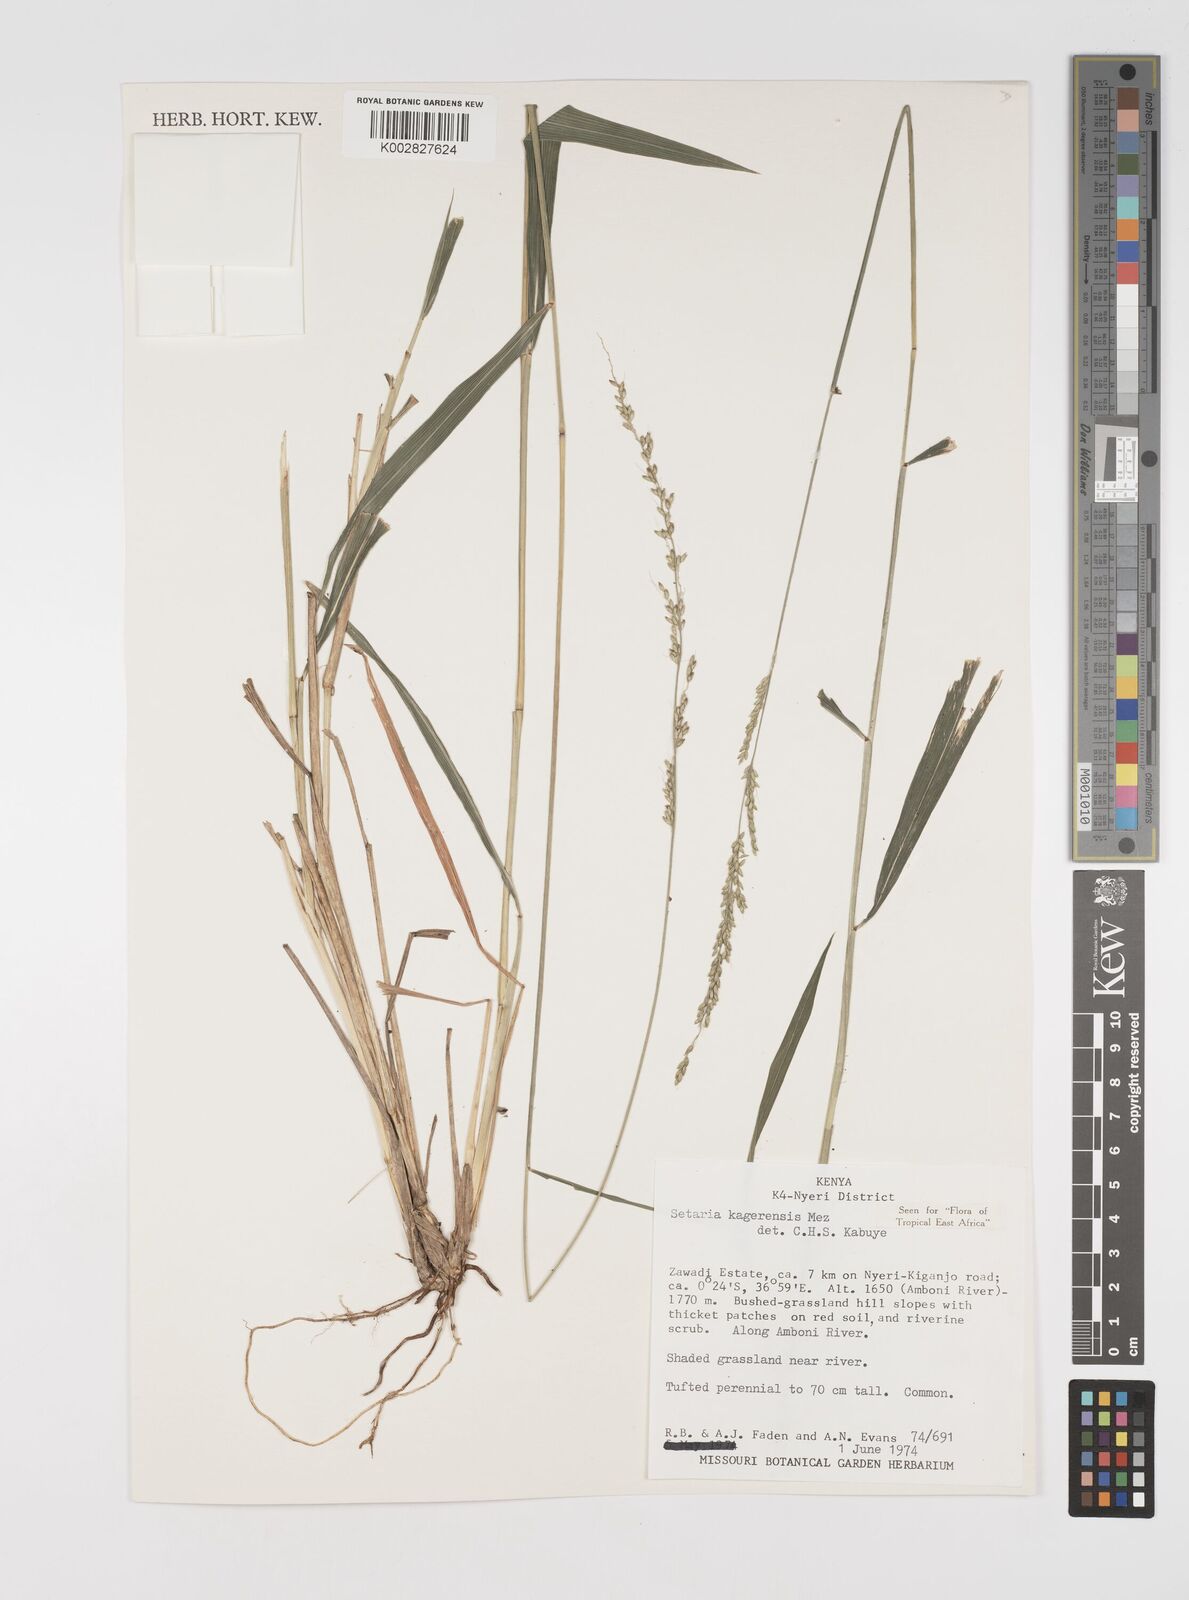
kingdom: Plantae
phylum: Tracheophyta
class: Liliopsida
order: Poales
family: Poaceae
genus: Setaria
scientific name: Setaria kagerensis
